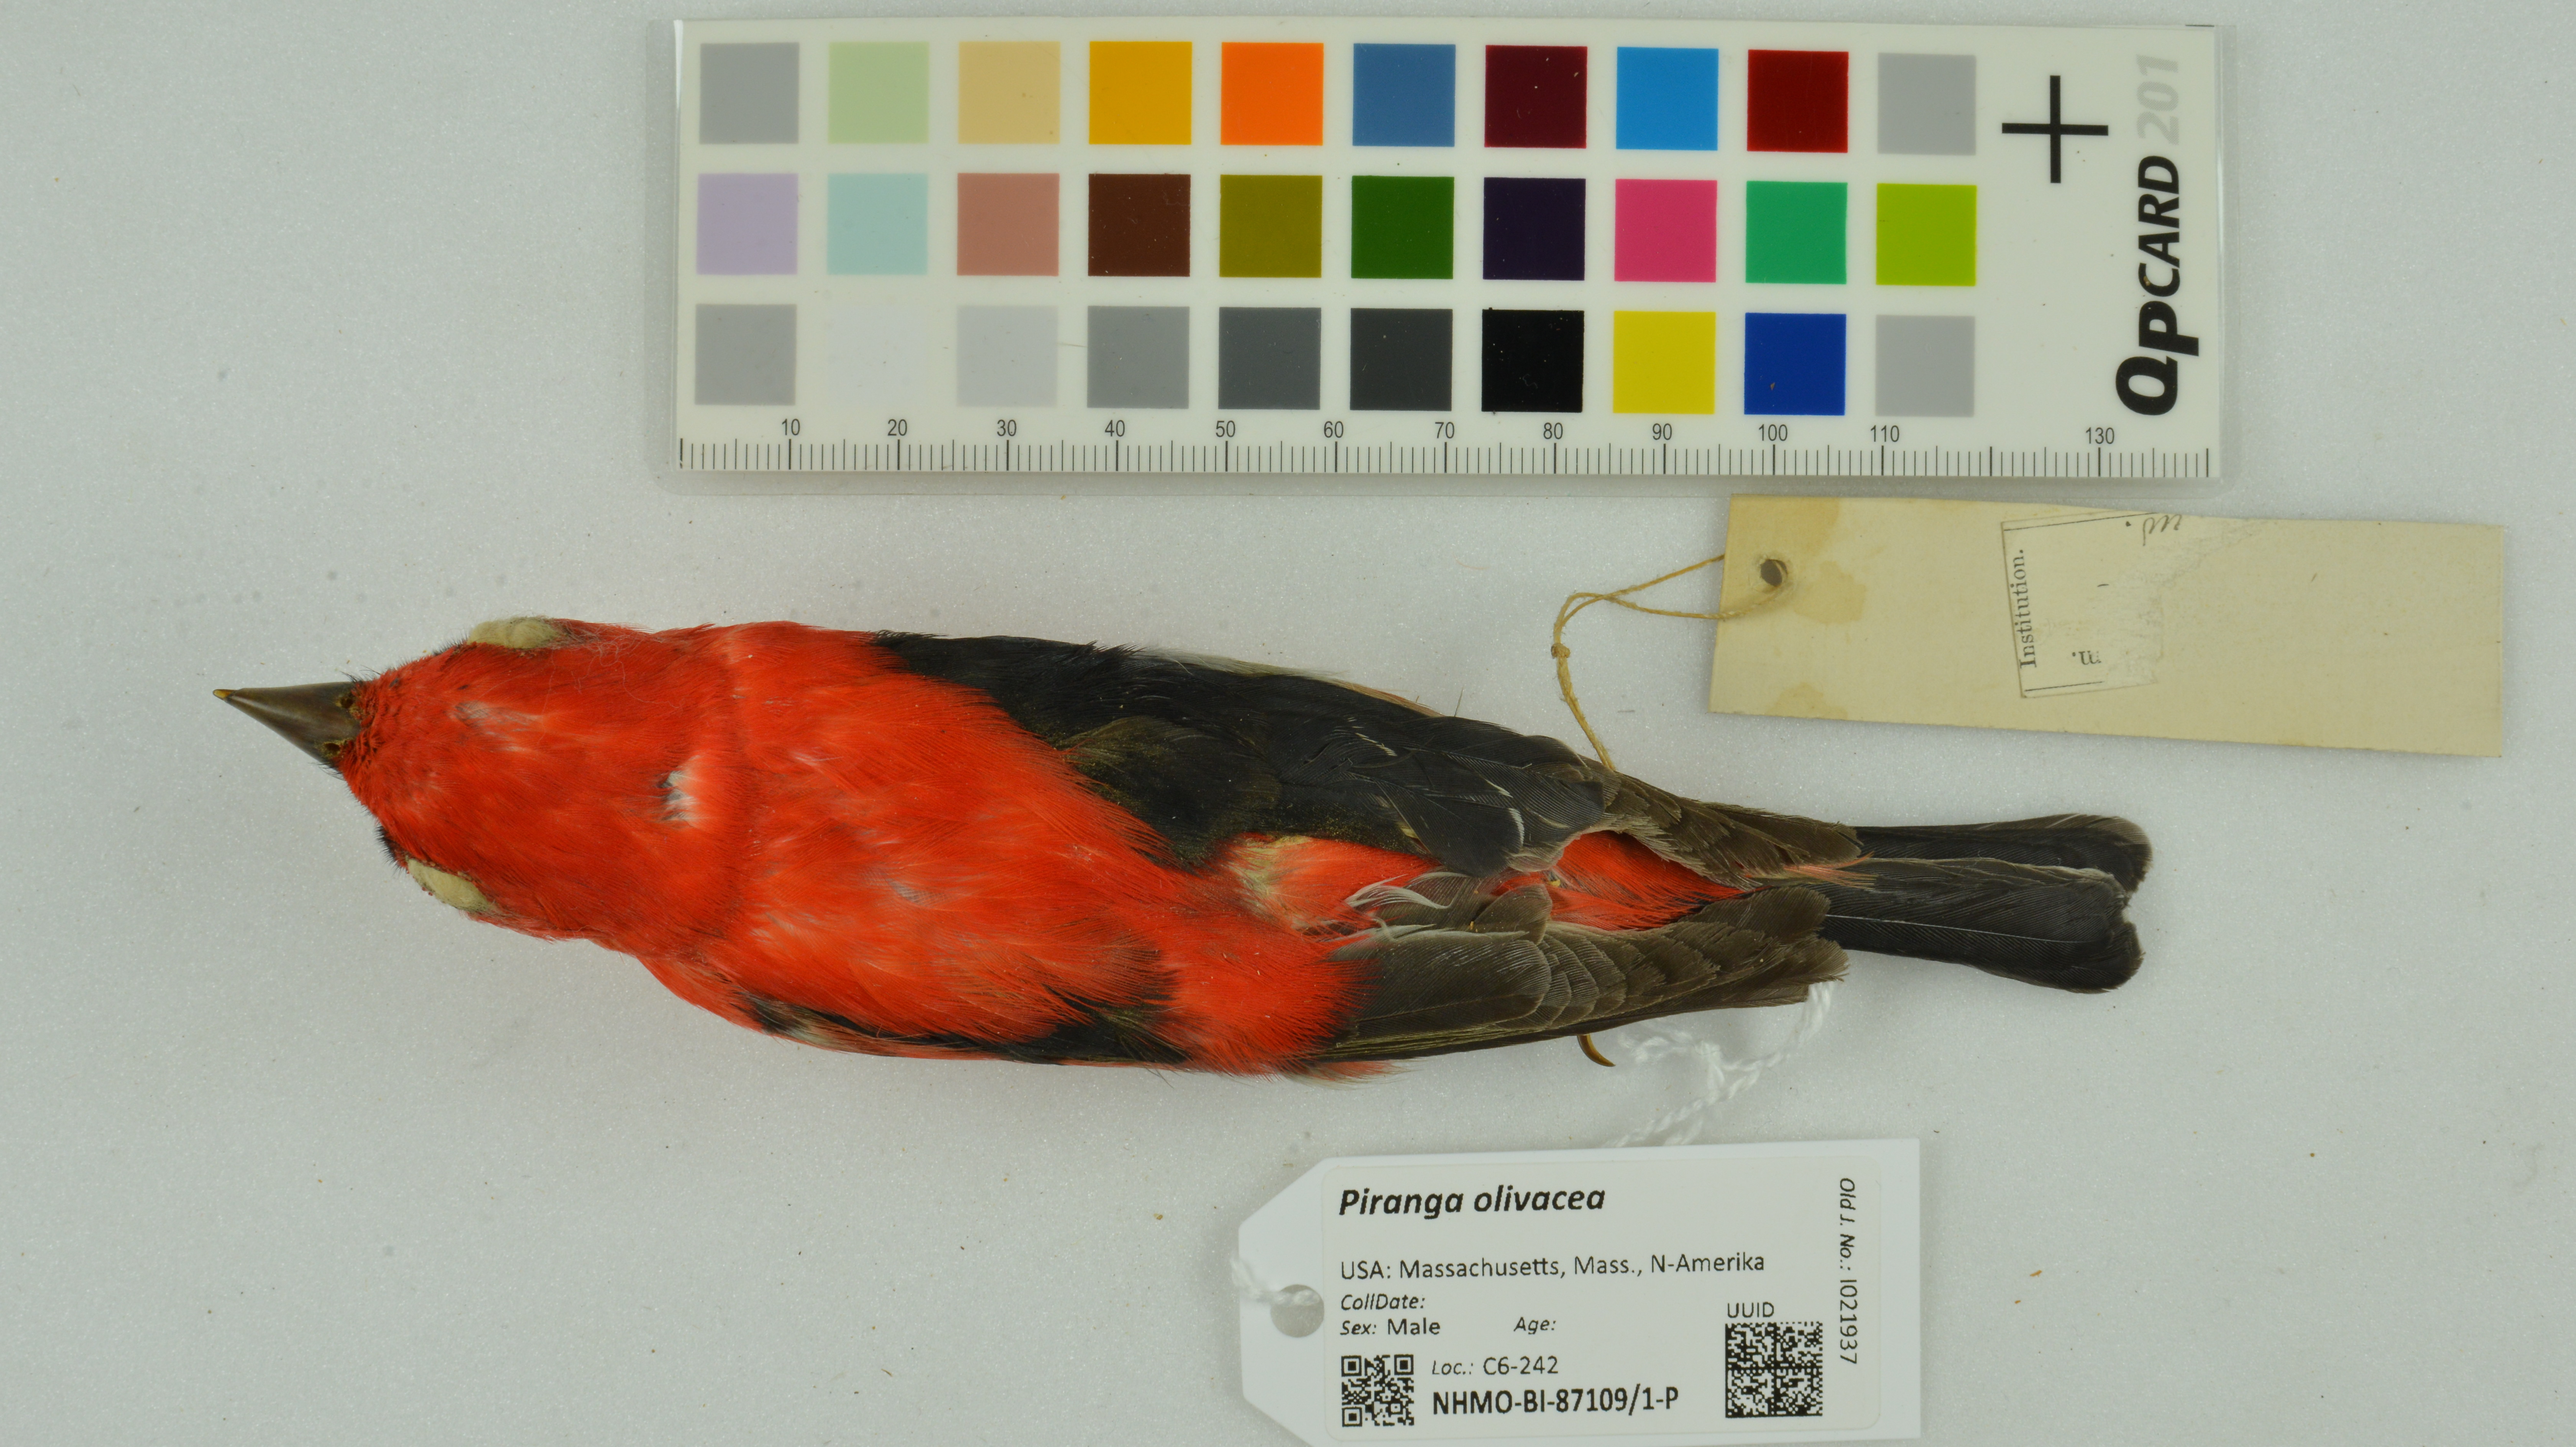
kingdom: Animalia
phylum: Chordata
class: Aves
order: Passeriformes
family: Cardinalidae
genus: Piranga
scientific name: Piranga olivacea
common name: Scarlet tanager
